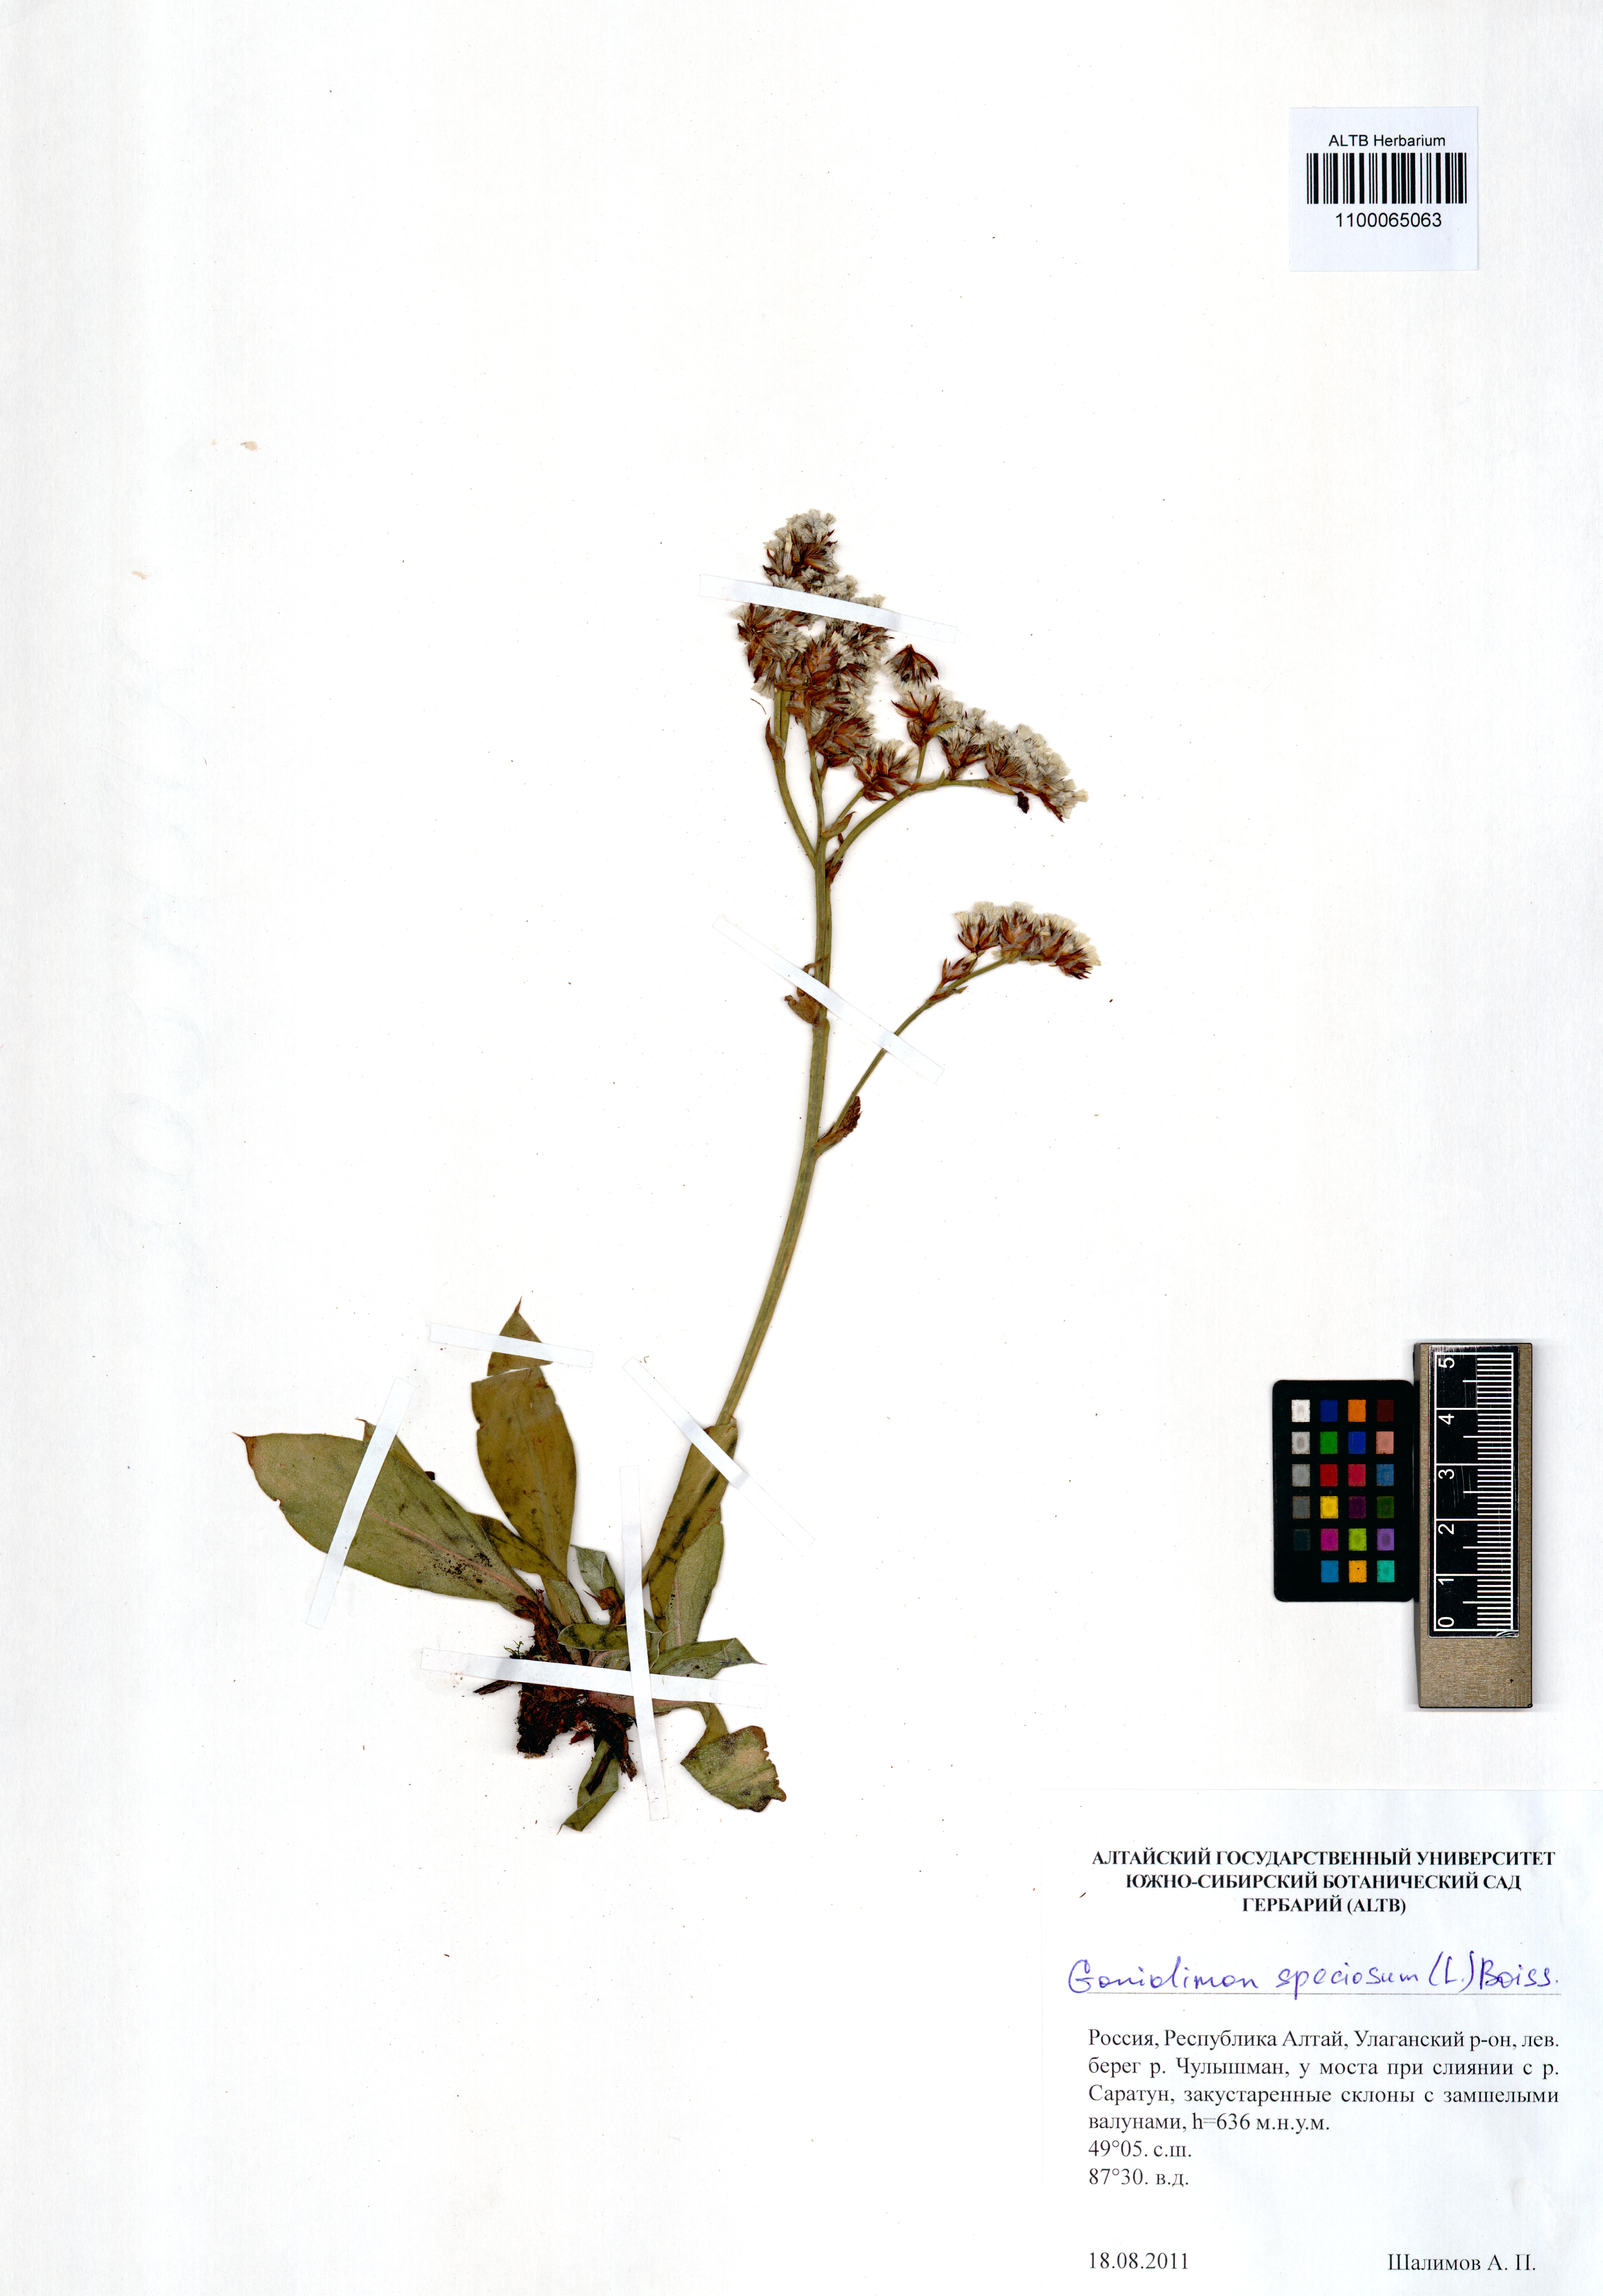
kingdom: Plantae
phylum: Tracheophyta
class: Magnoliopsida
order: Caryophyllales
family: Plumbaginaceae
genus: Goniolimon
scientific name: Goniolimon speciosum
